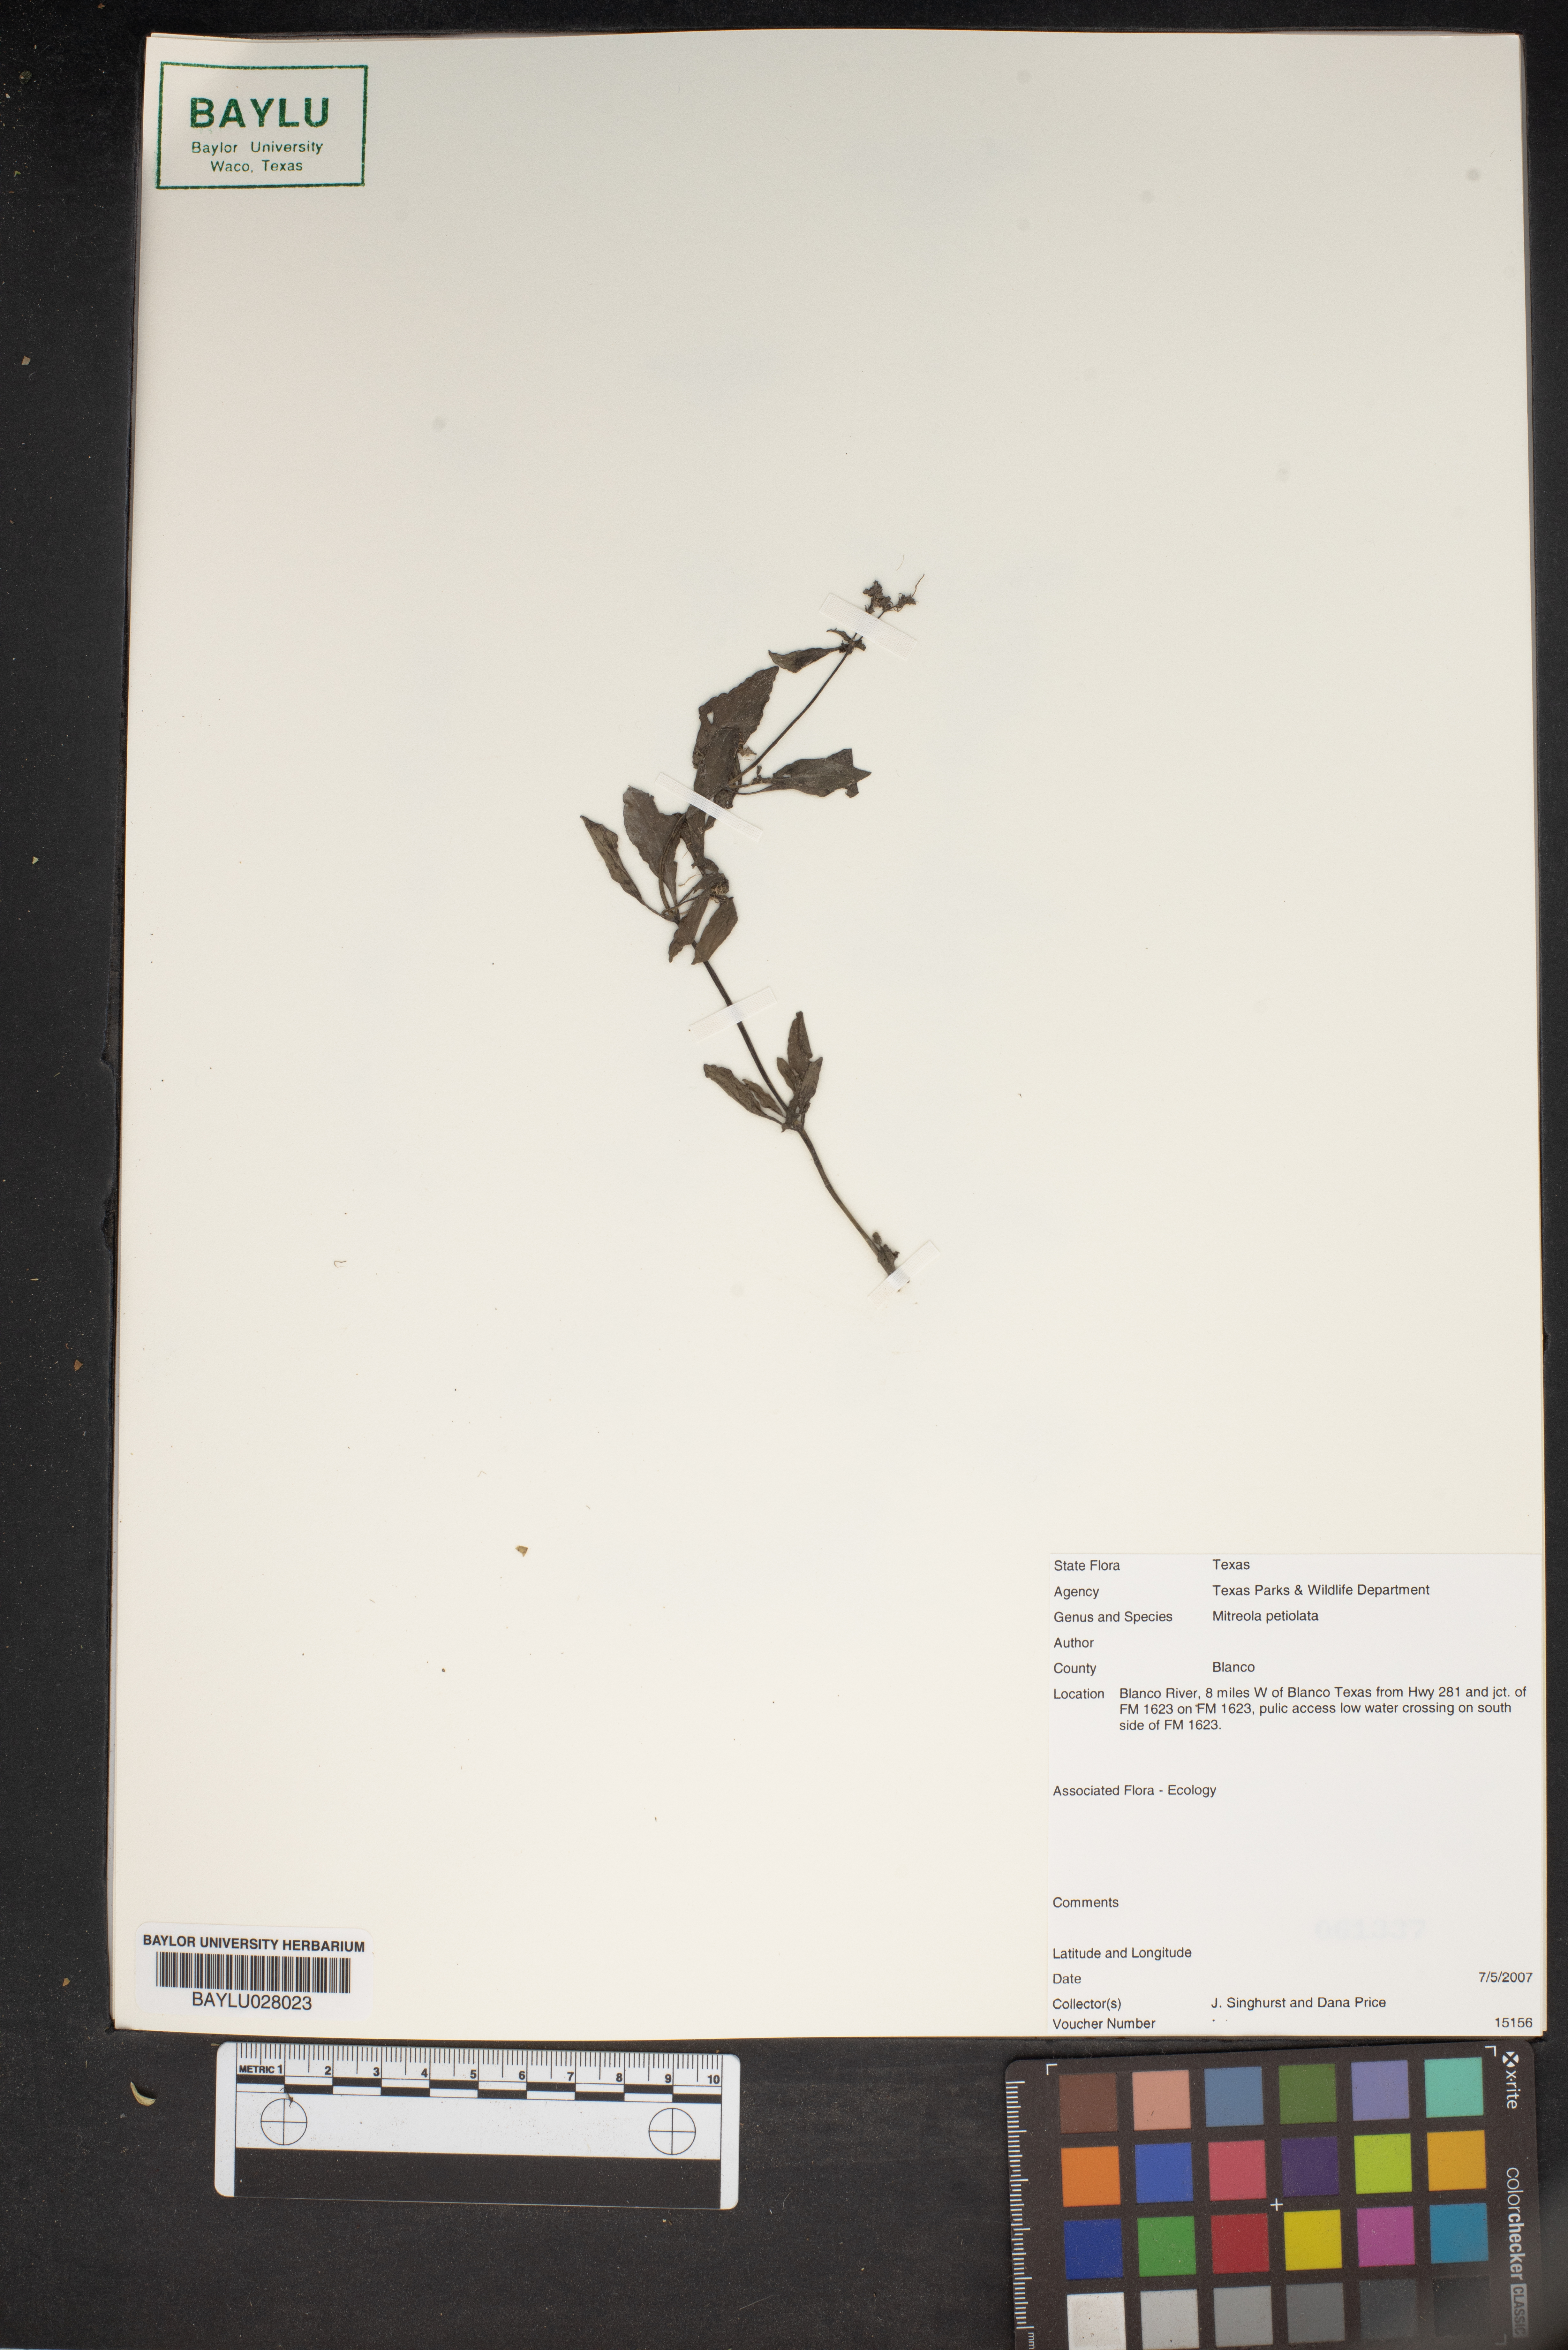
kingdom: Plantae
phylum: Tracheophyta
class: Magnoliopsida
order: Gentianales
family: Loganiaceae
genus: Mitreola
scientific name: Mitreola petiolata
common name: Lax hornpod
